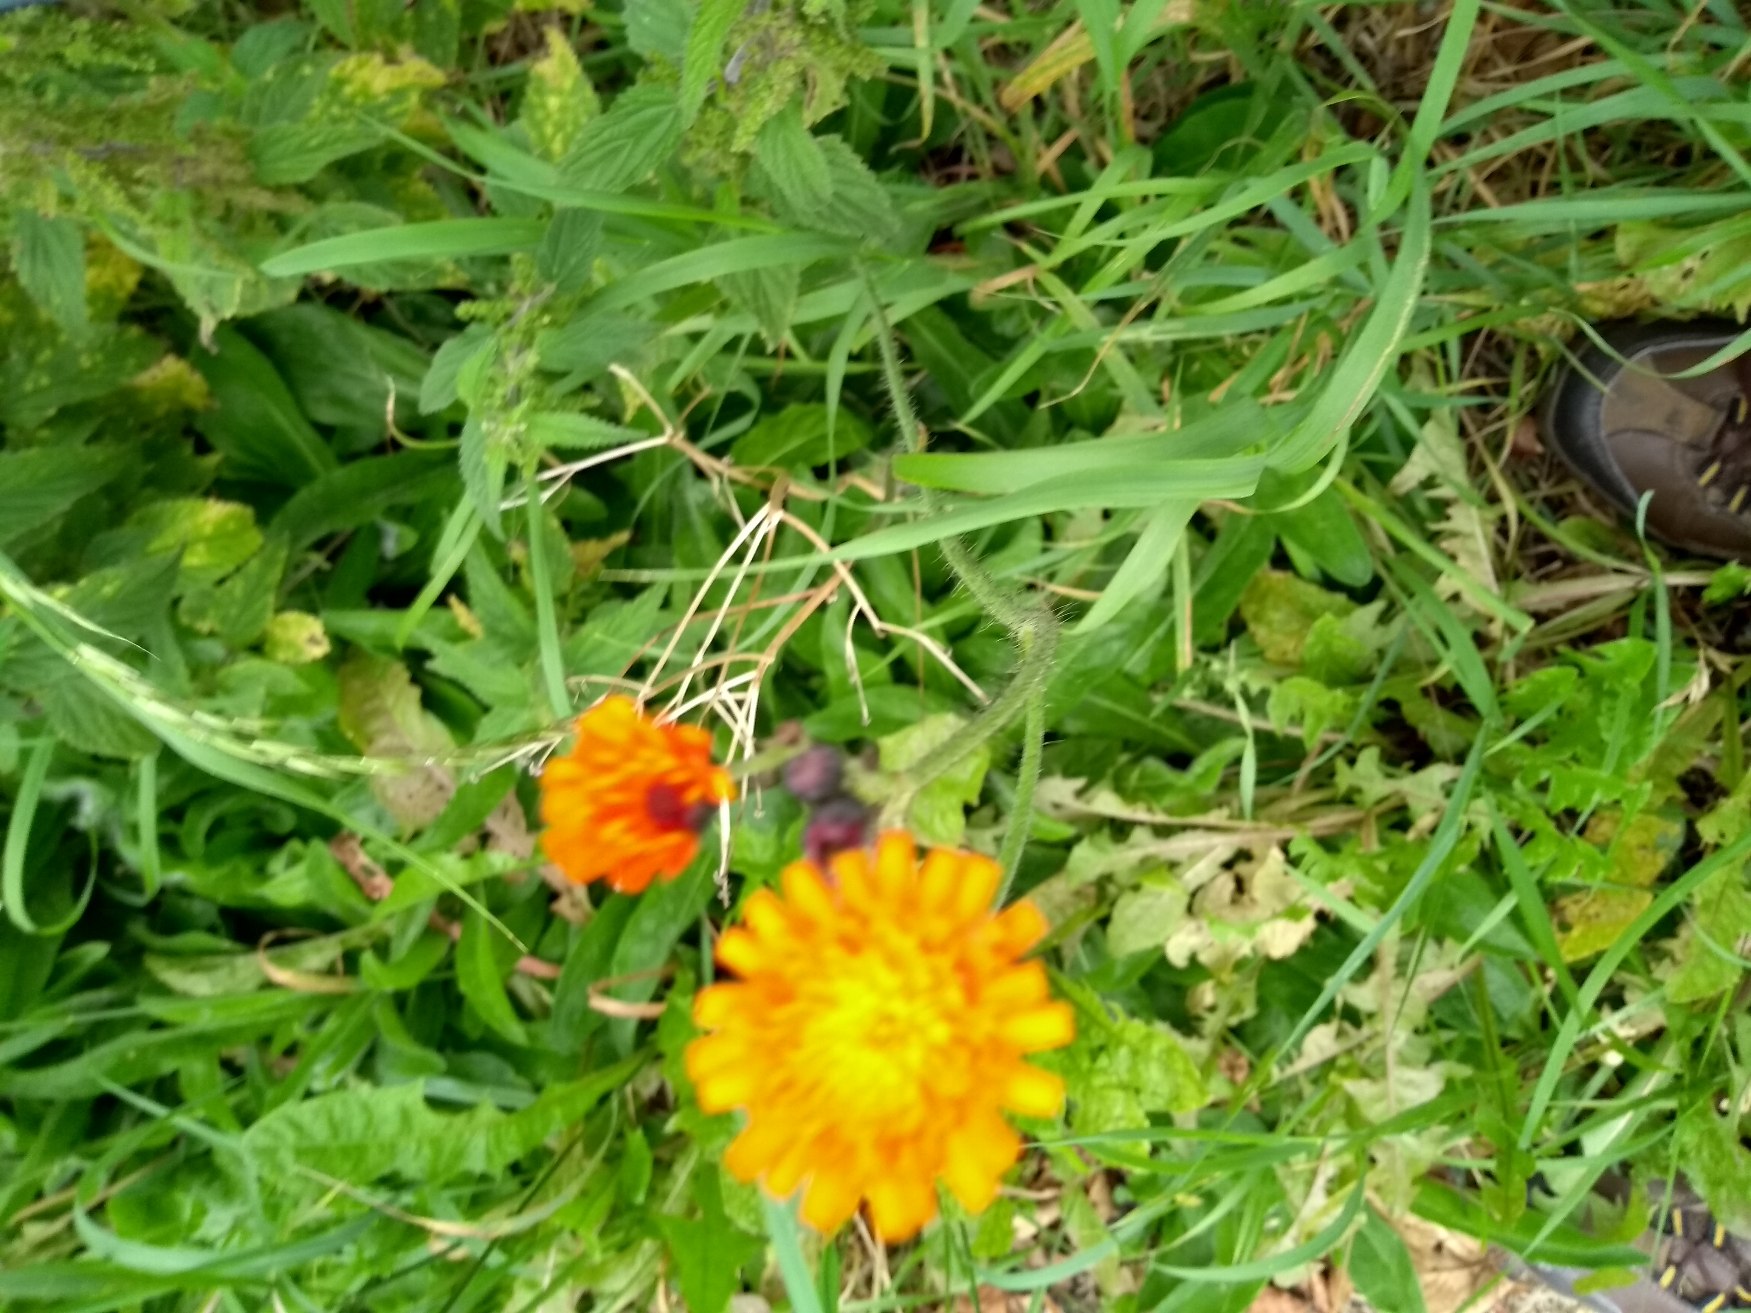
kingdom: Plantae
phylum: Tracheophyta
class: Magnoliopsida
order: Asterales
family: Asteraceae
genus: Pilosella
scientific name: Pilosella aurantiaca
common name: Pomerans-høgeurt
